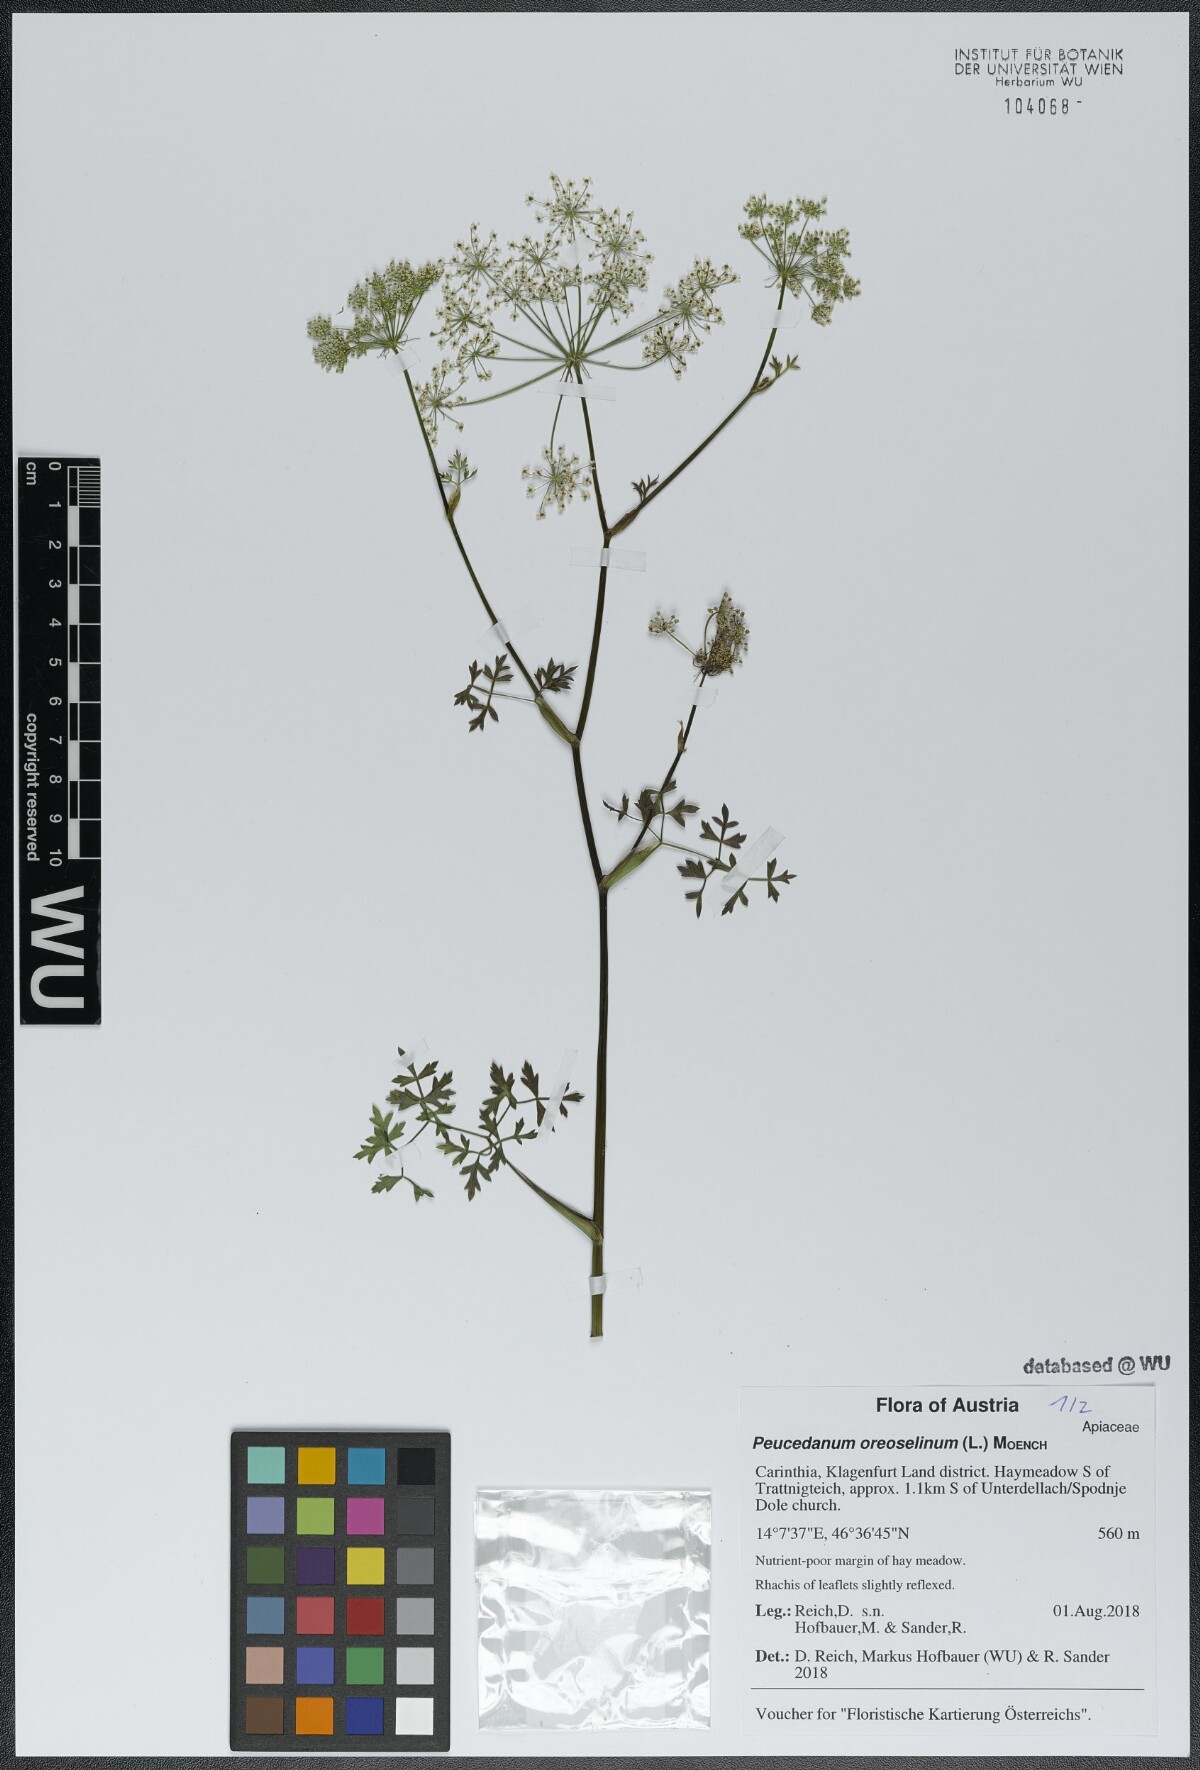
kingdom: Plantae
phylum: Tracheophyta
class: Magnoliopsida
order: Apiales
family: Apiaceae
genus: Oreoselinum
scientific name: Oreoselinum nigrum
